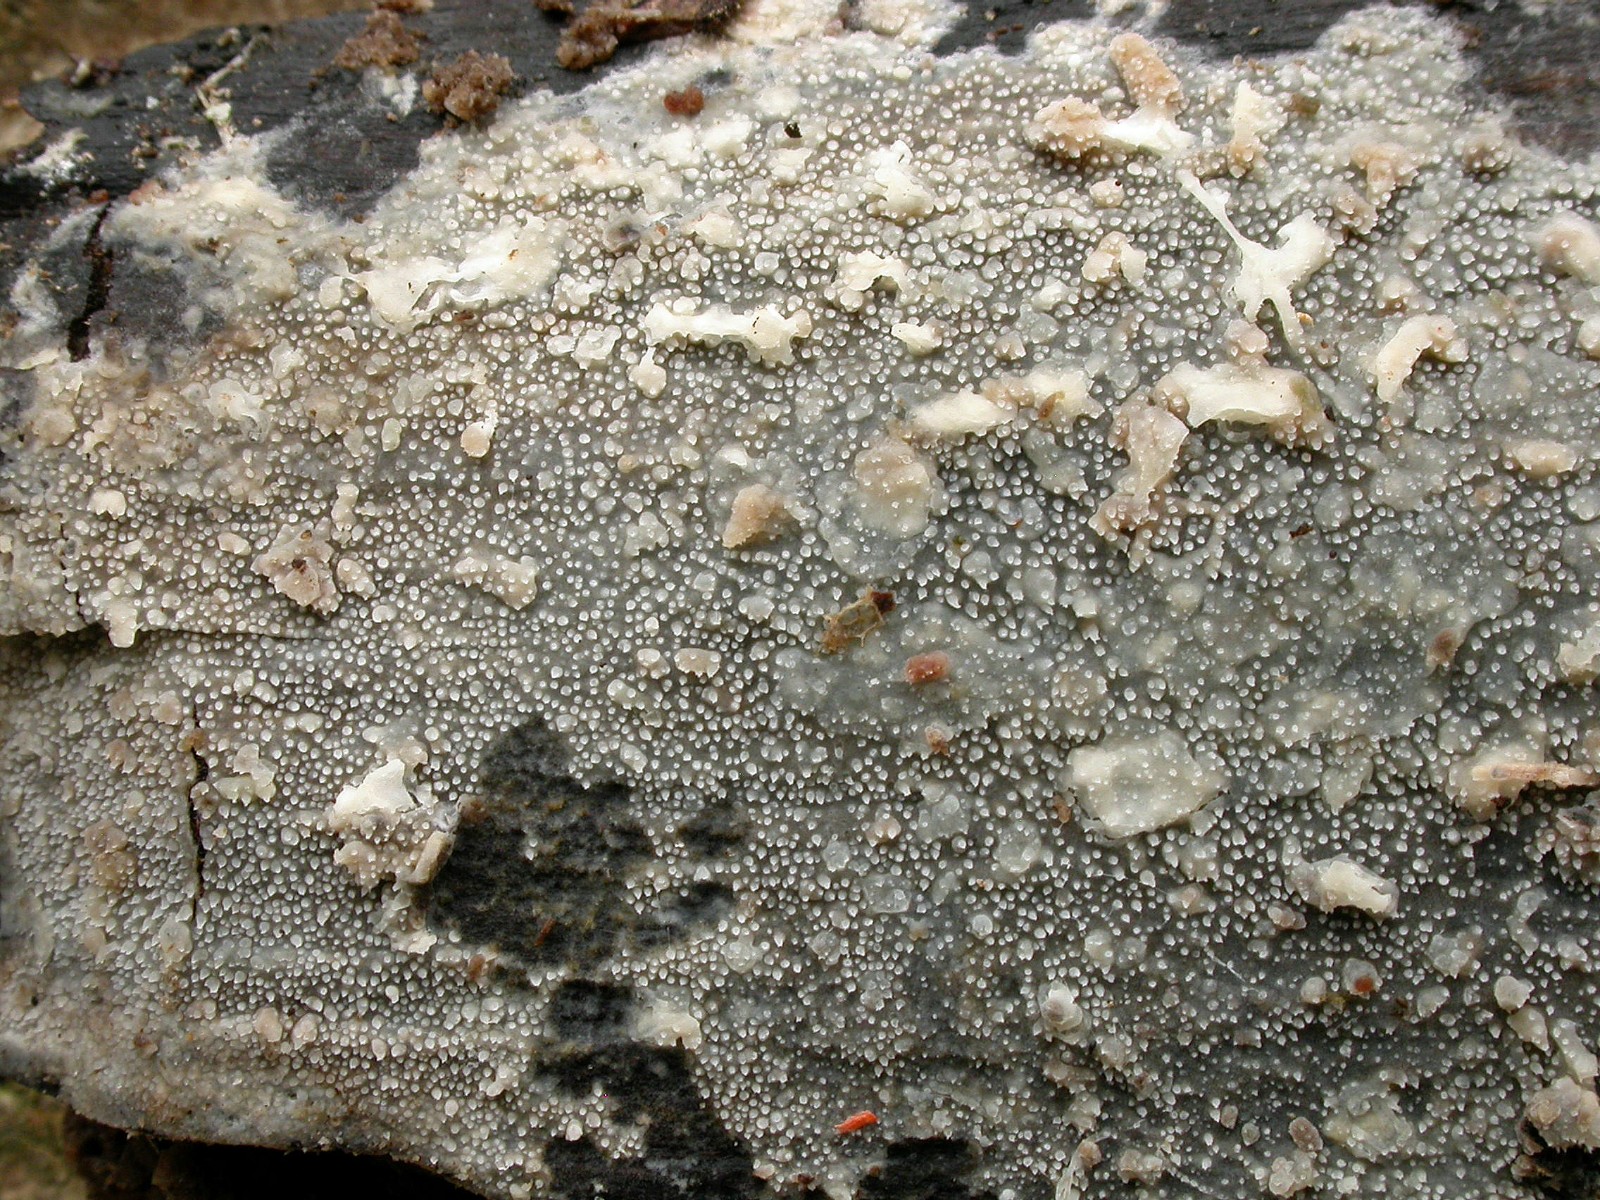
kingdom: Fungi
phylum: Basidiomycota
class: Agaricomycetes
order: Hymenochaetales
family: Rickenellaceae
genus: Resinicium
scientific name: Resinicium bicolor
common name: almindelig vokstand
